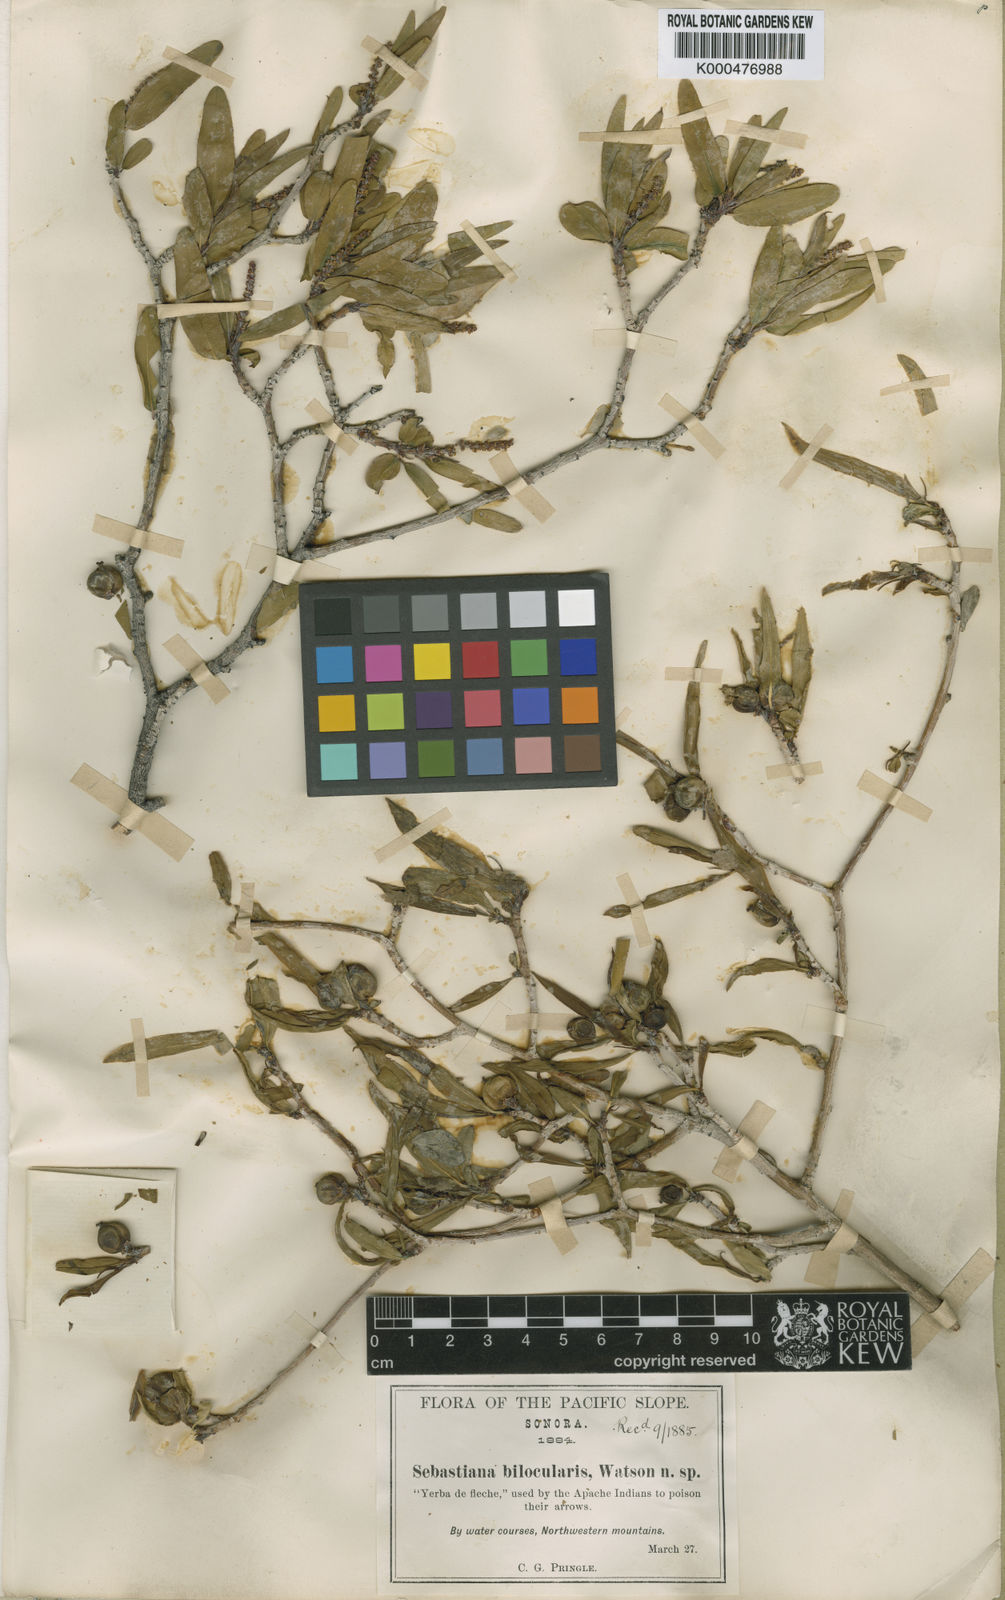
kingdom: Plantae
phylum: Tracheophyta
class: Magnoliopsida
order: Malpighiales
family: Euphorbiaceae
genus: Pleradenophora
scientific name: Pleradenophora bilocularis
